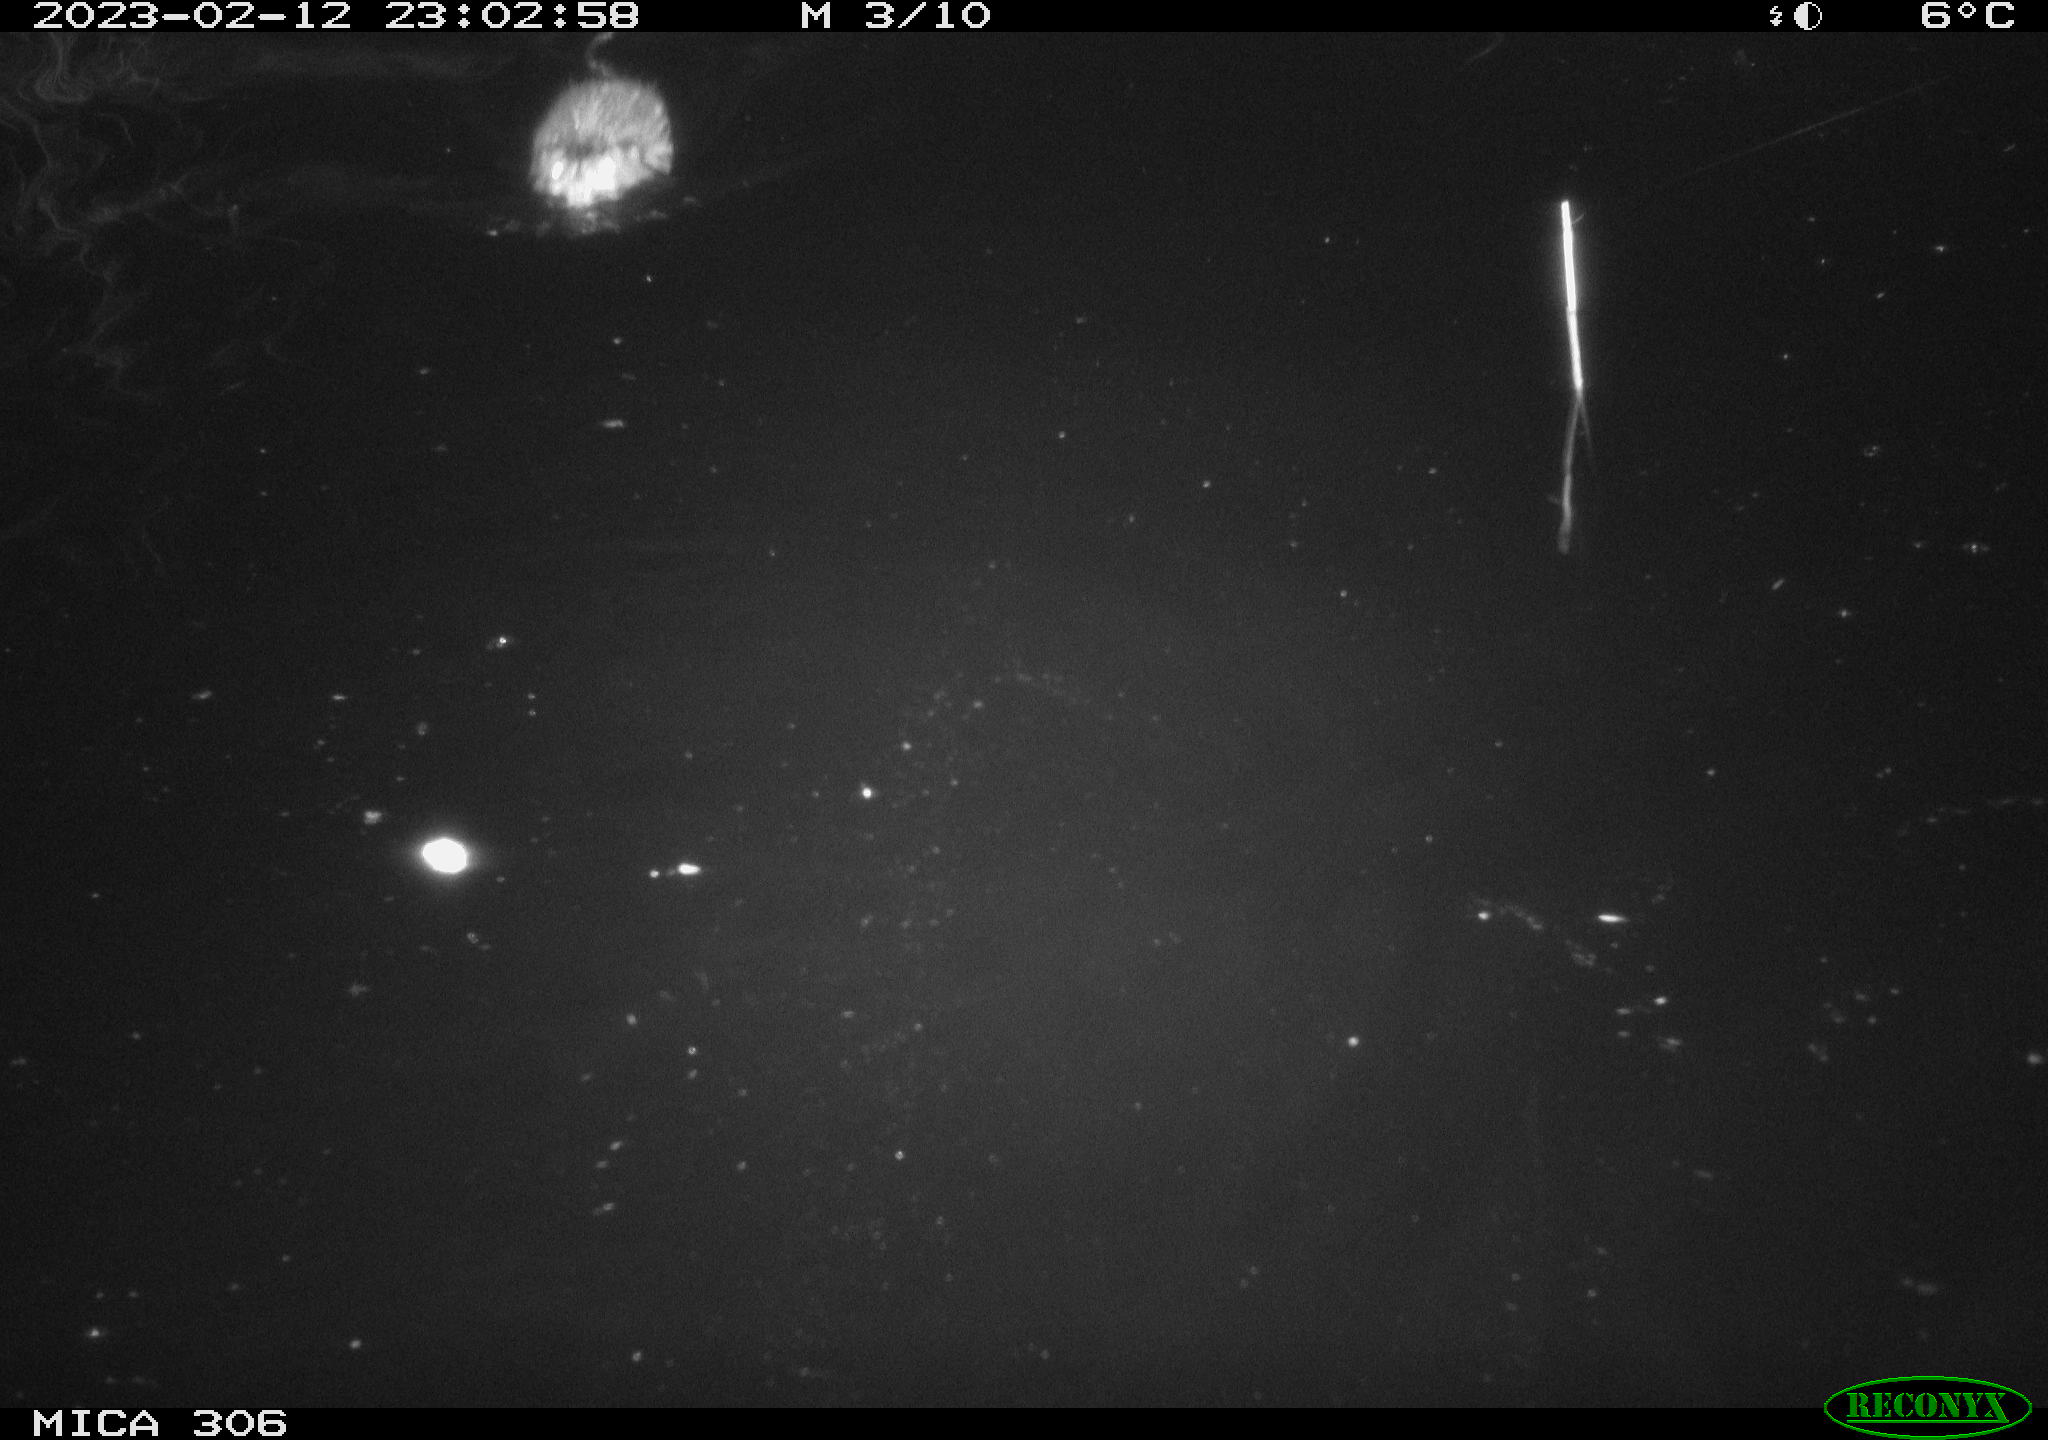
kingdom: Animalia
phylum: Chordata
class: Mammalia
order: Rodentia
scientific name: Rodentia
